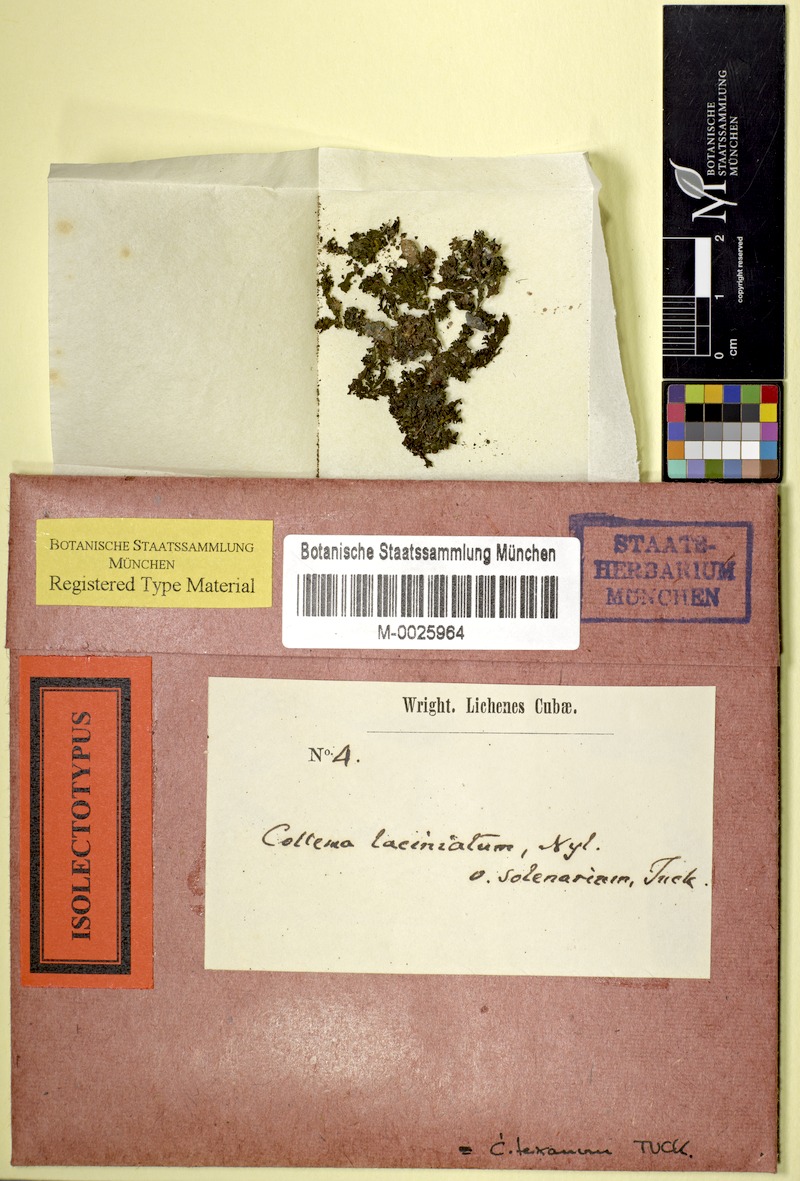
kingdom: Fungi
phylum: Ascomycota
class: Lecanoromycetes
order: Peltigerales
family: Collemataceae
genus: Collema
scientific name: Collema texanum
